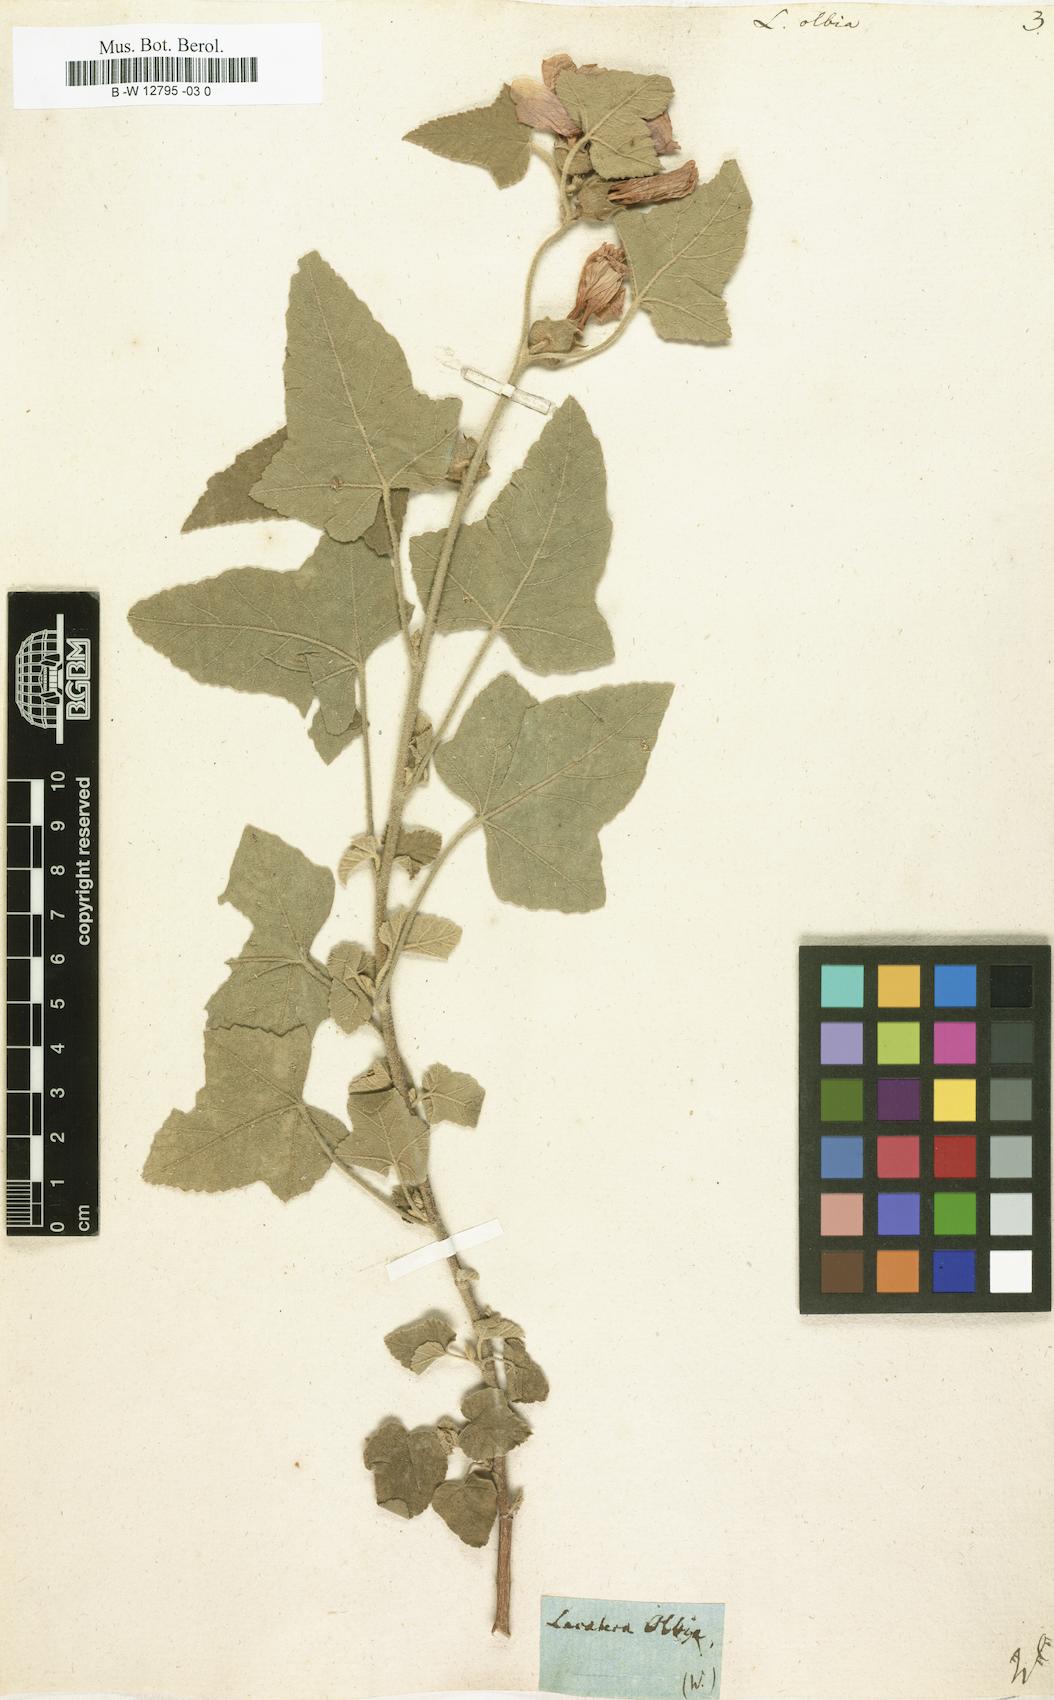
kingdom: Plantae
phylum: Tracheophyta
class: Magnoliopsida
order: Malvales
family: Malvaceae
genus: Malva
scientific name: Malva
